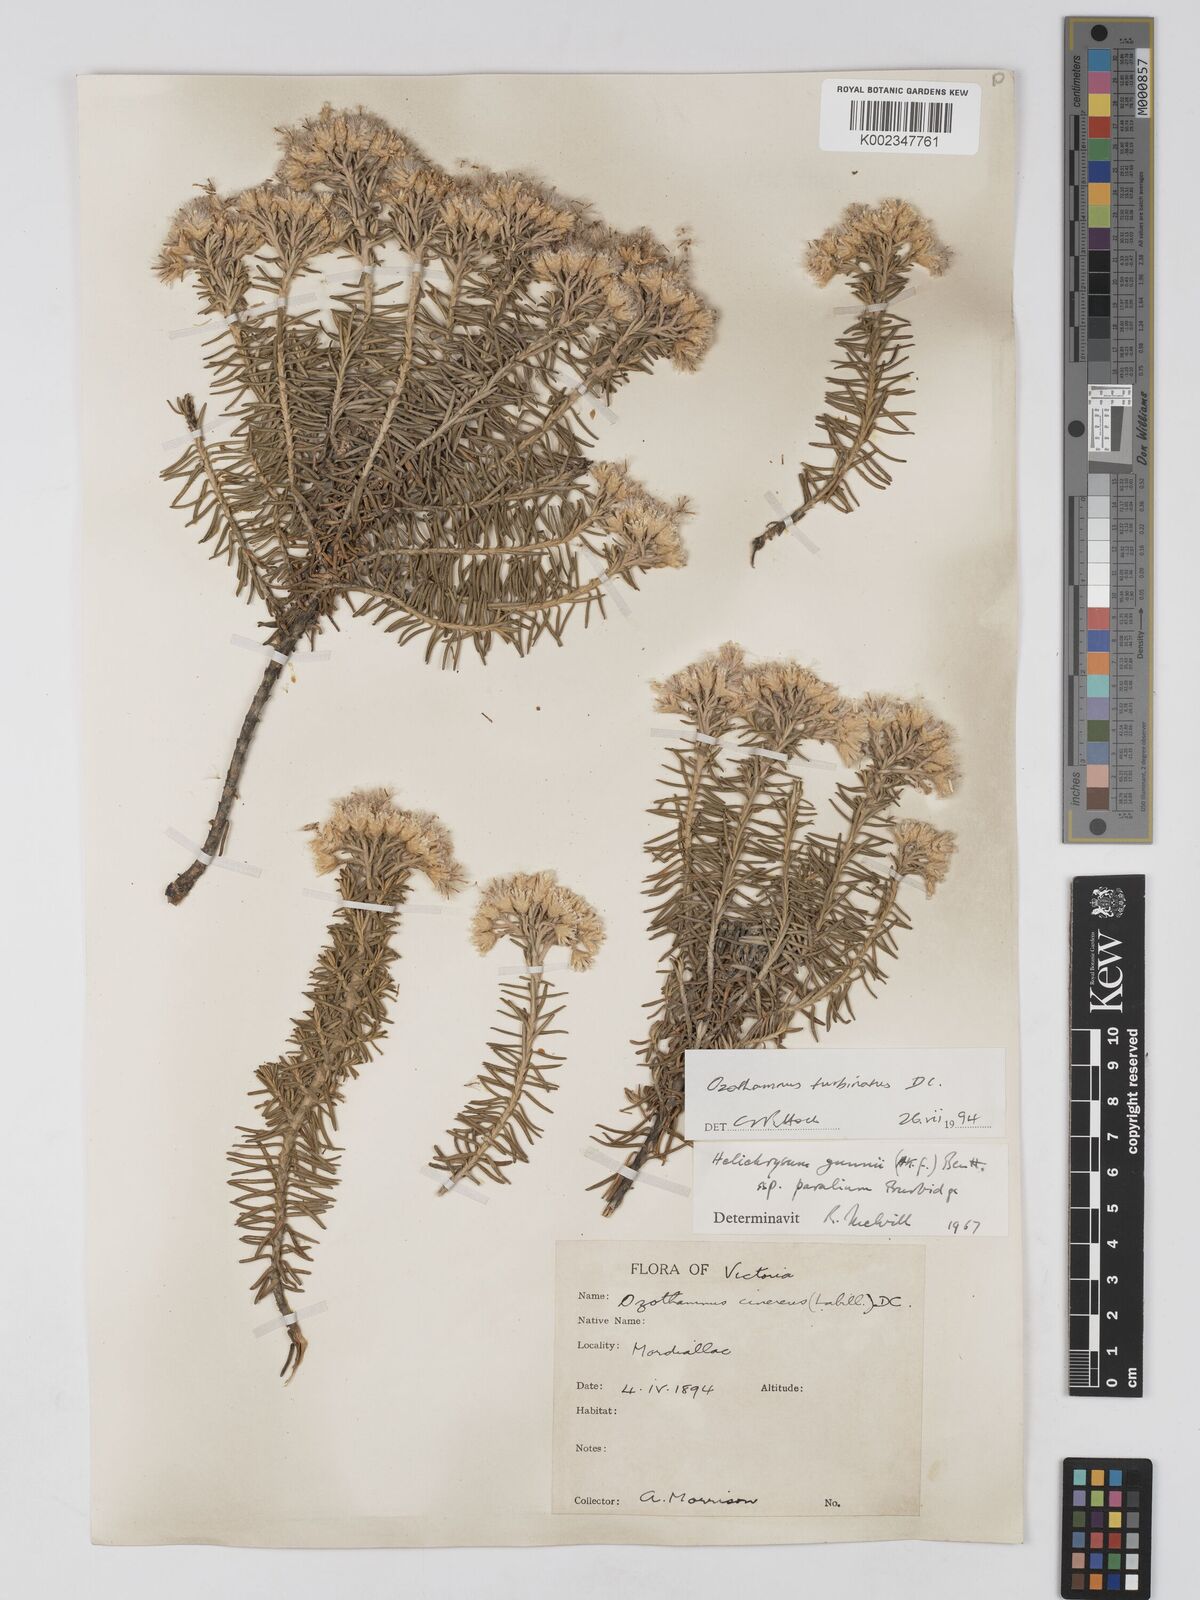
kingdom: Plantae
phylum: Tracheophyta
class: Magnoliopsida
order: Asterales
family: Asteraceae
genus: Ozothamnus
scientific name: Ozothamnus cinereus
